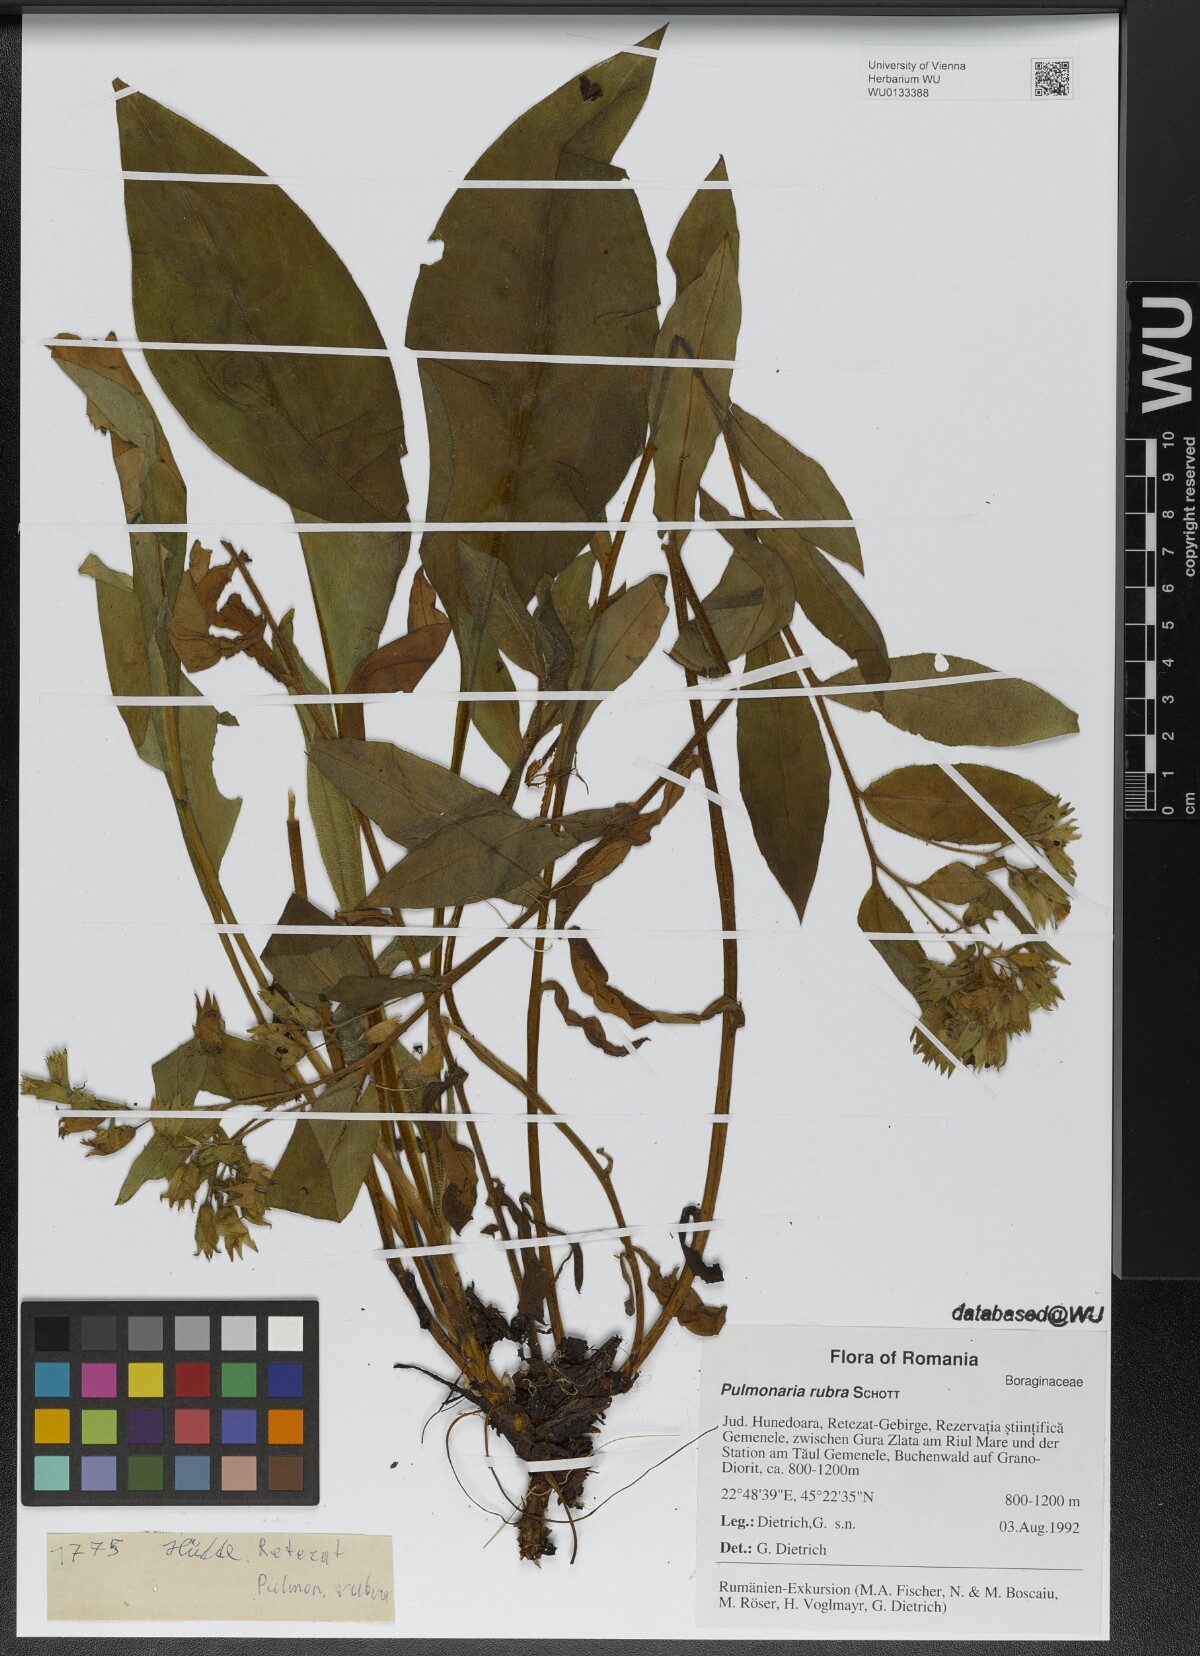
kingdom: Plantae
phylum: Tracheophyta
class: Magnoliopsida
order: Boraginales
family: Boraginaceae
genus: Pulmonaria
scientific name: Pulmonaria rubra
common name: Red lungwort
